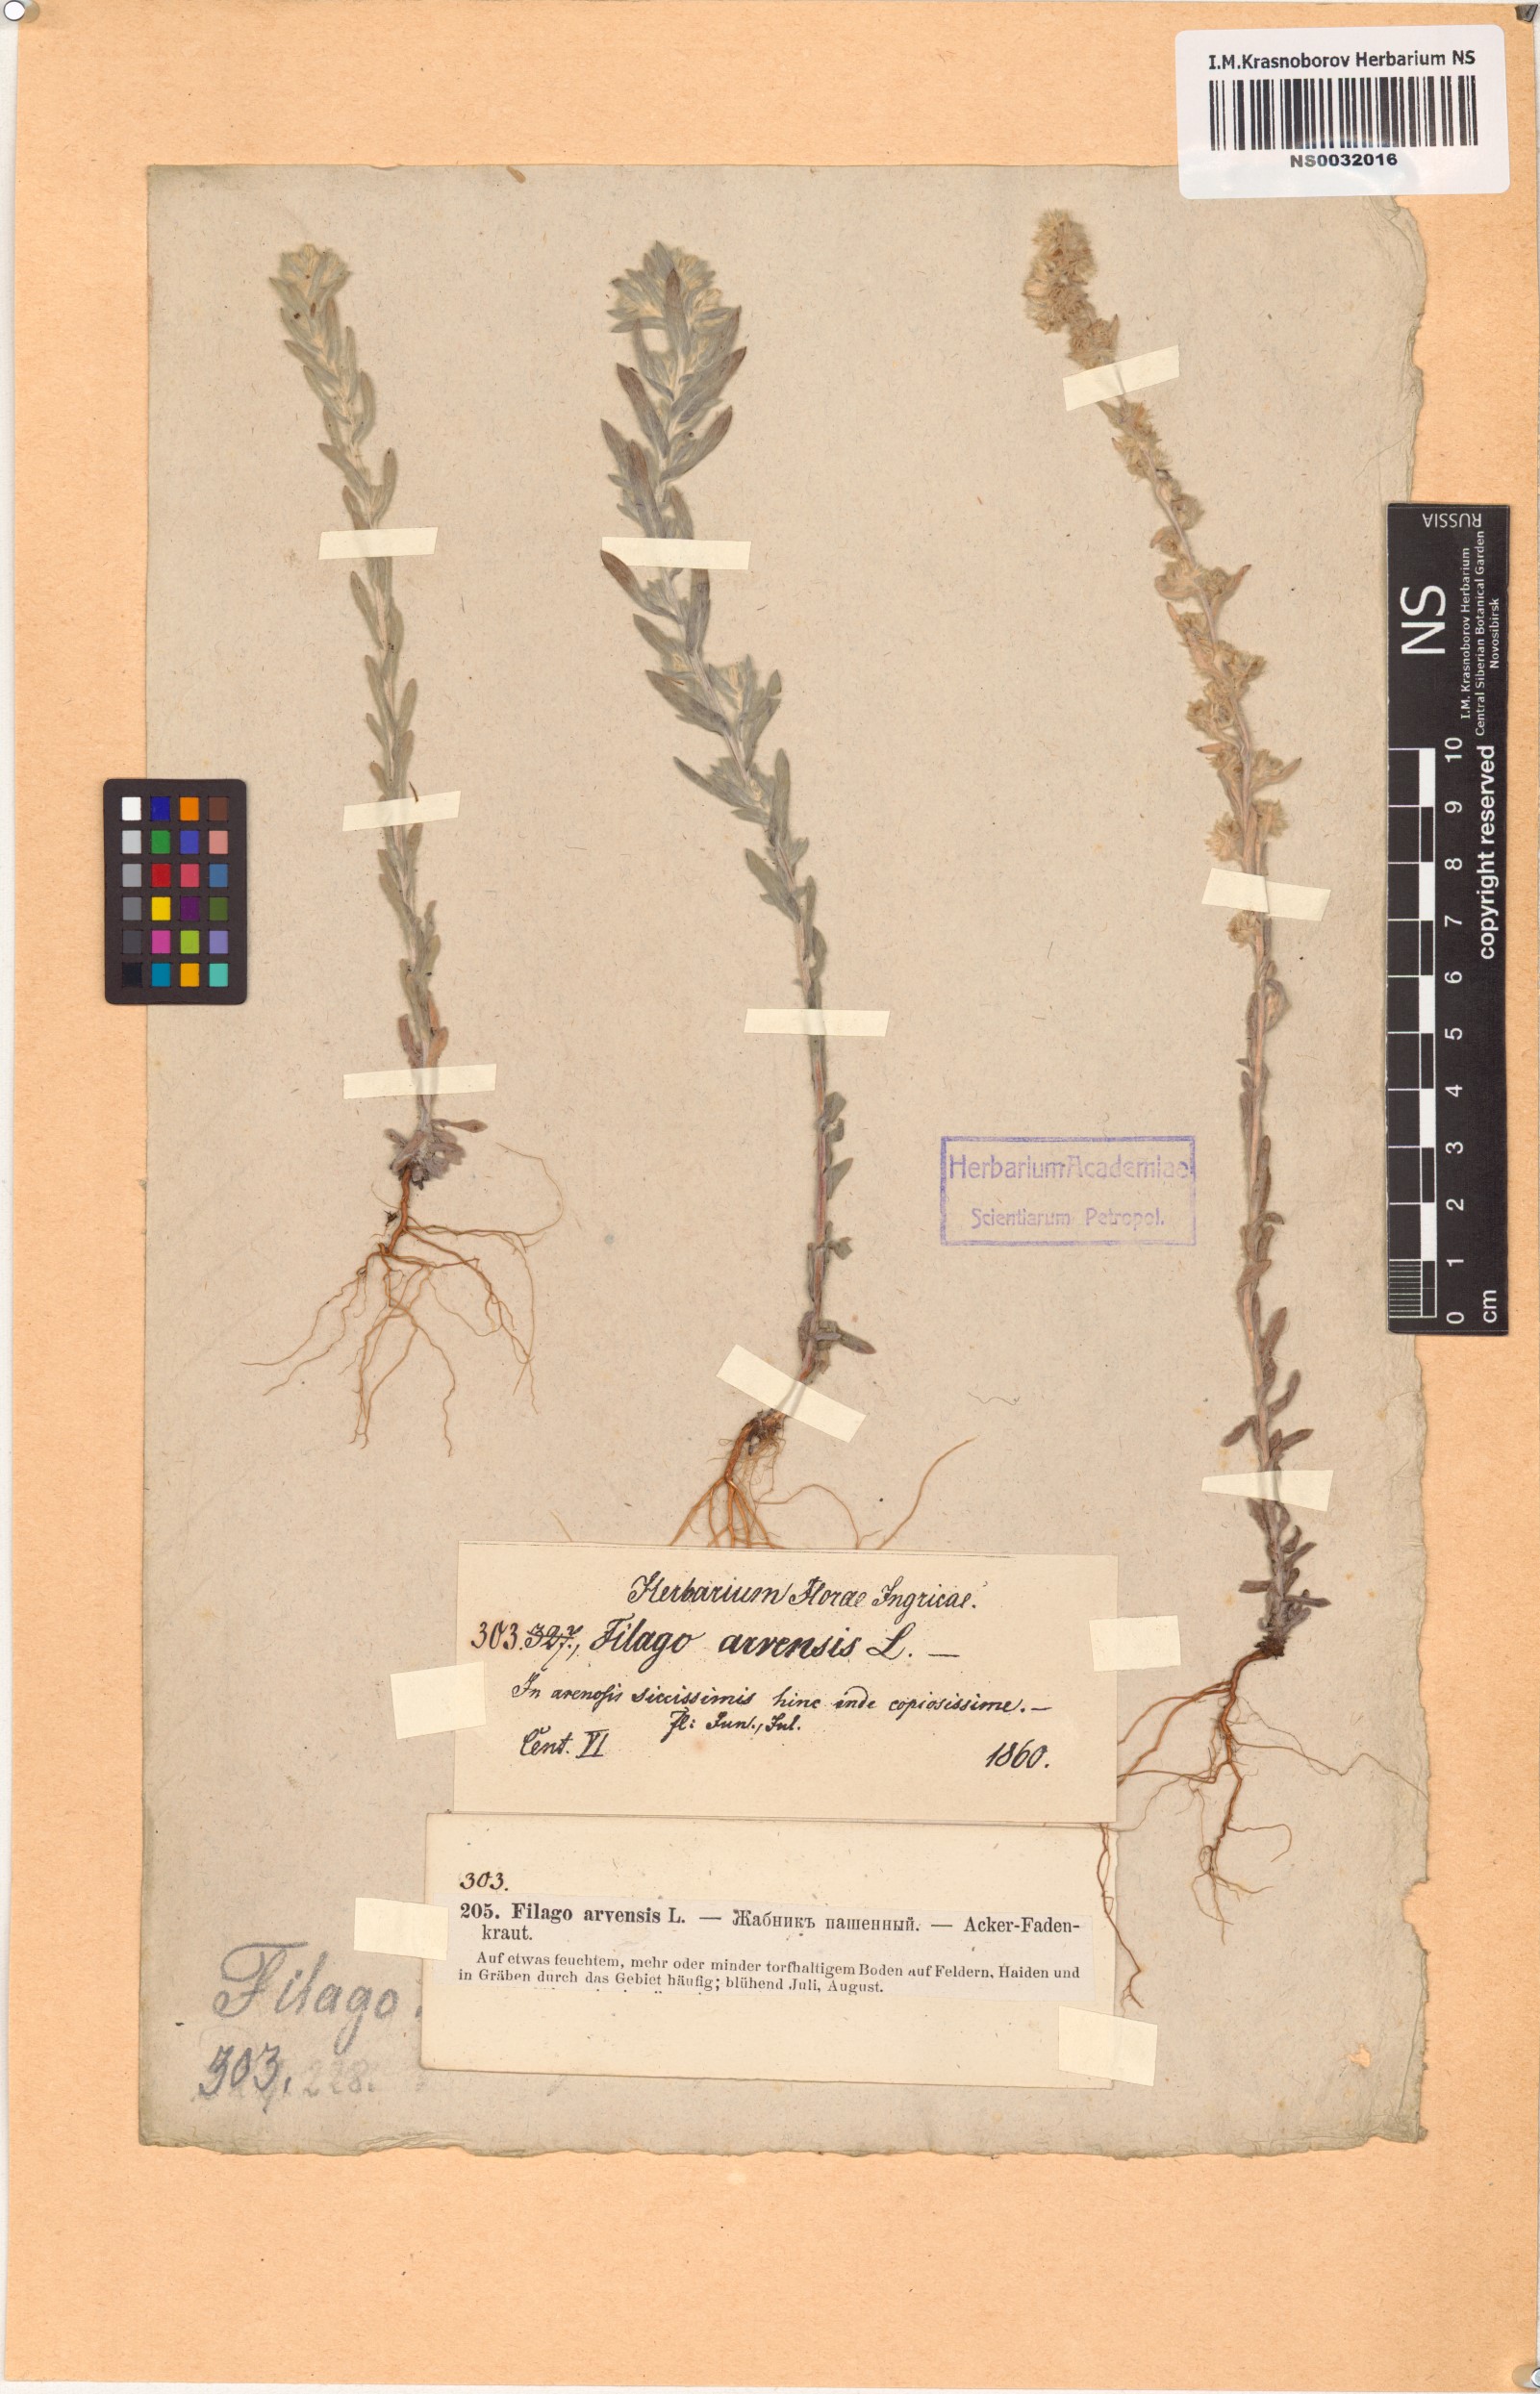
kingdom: Plantae
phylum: Tracheophyta
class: Magnoliopsida
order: Asterales
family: Asteraceae
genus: Filago
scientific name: Filago arvensis
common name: Field cudweed
